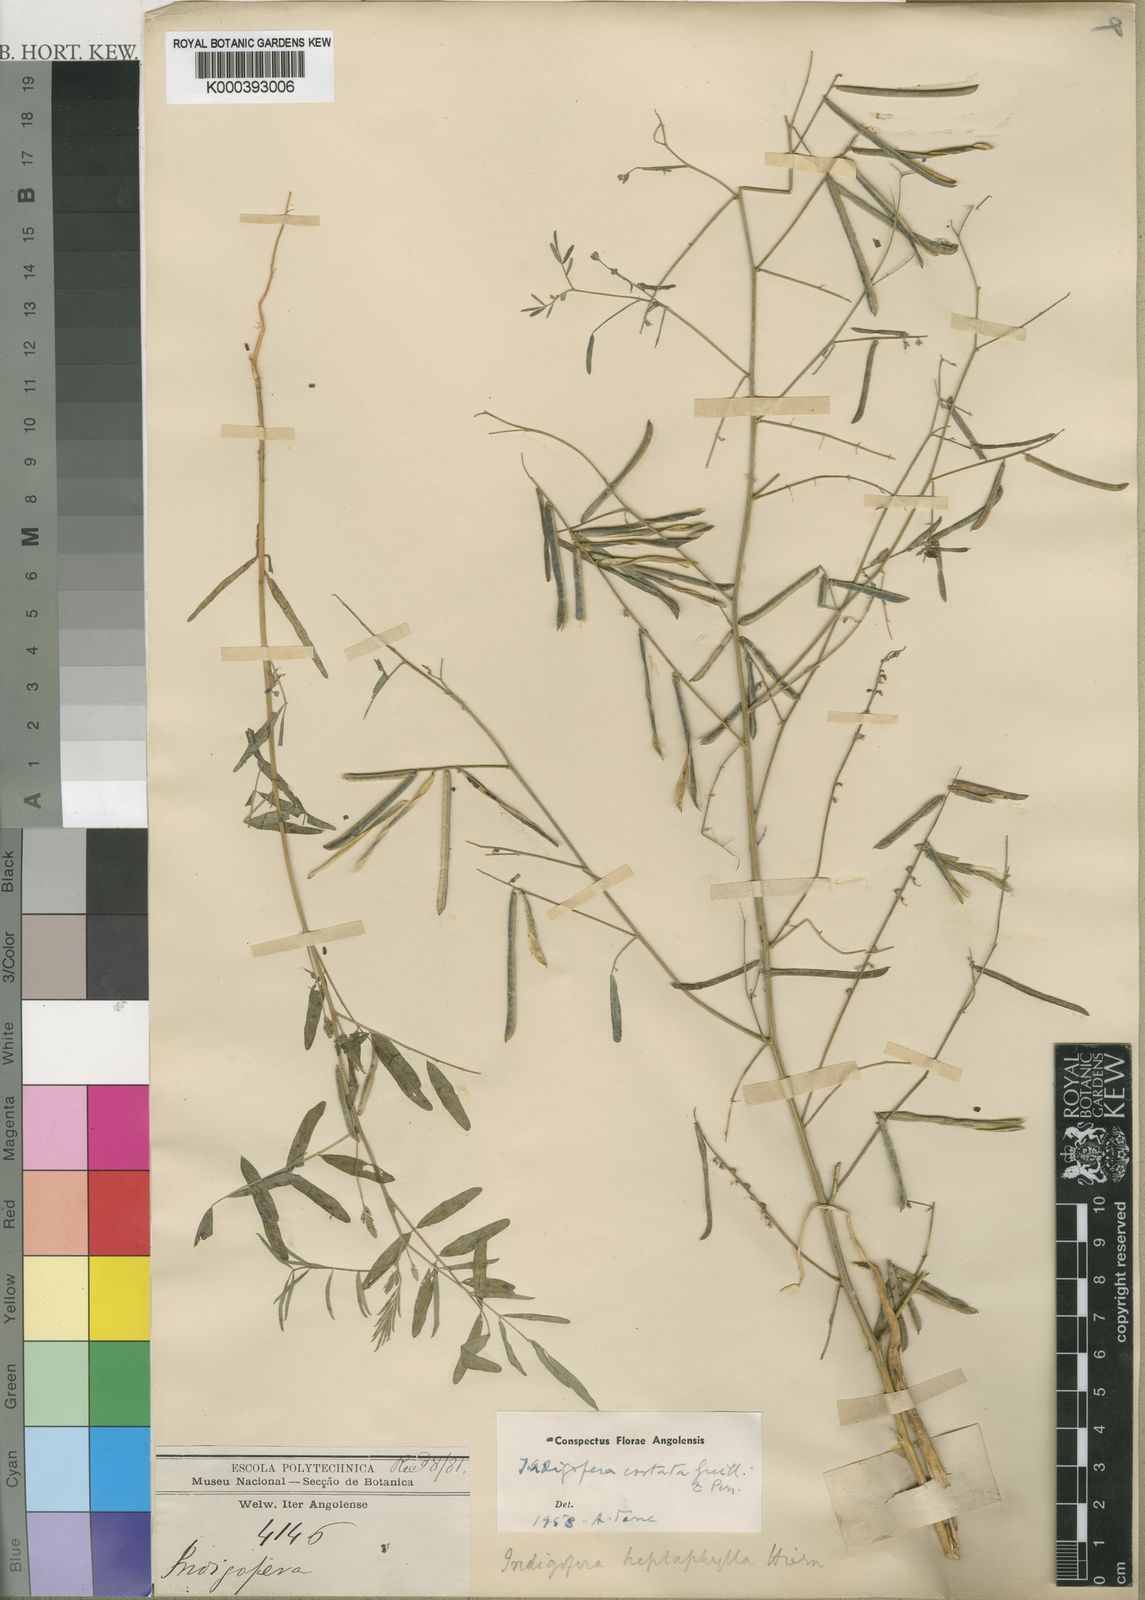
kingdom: Plantae
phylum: Tracheophyta
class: Magnoliopsida
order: Fabales
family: Fabaceae
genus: Indigastrum
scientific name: Indigastrum costatum
